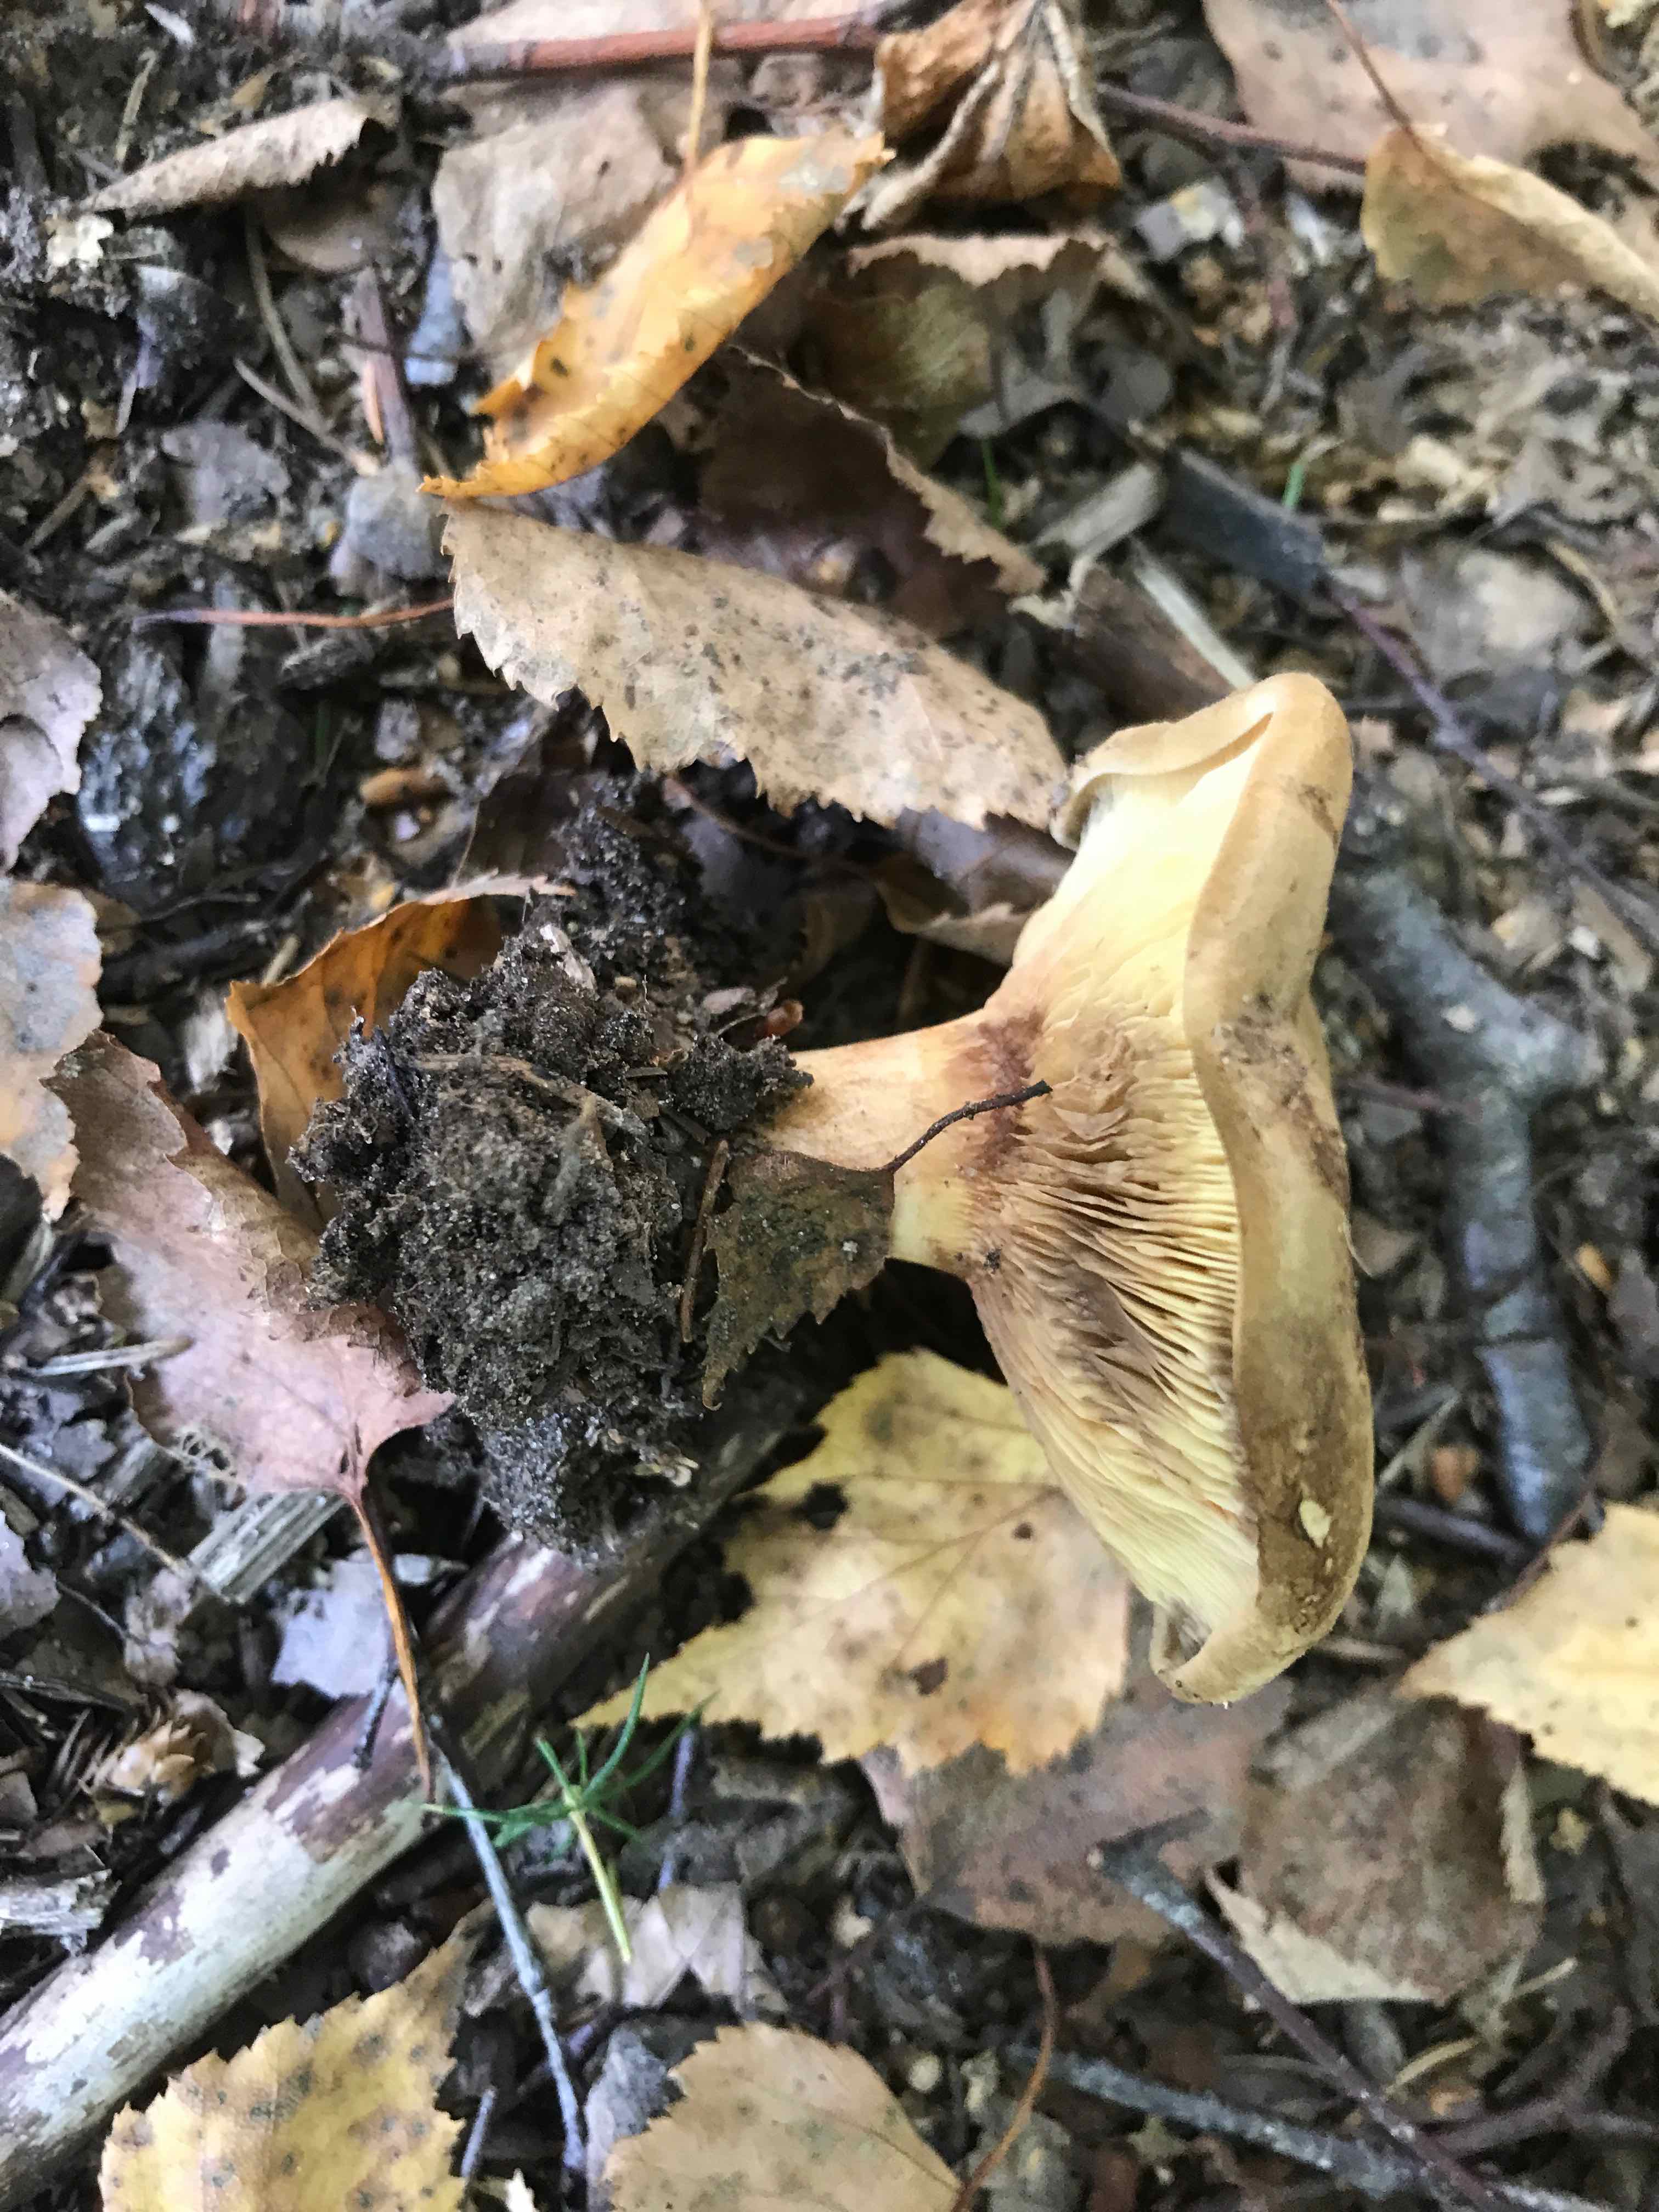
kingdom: Fungi
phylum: Basidiomycota
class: Agaricomycetes
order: Boletales
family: Paxillaceae
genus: Paxillus
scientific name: Paxillus involutus
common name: almindelig netbladhat
